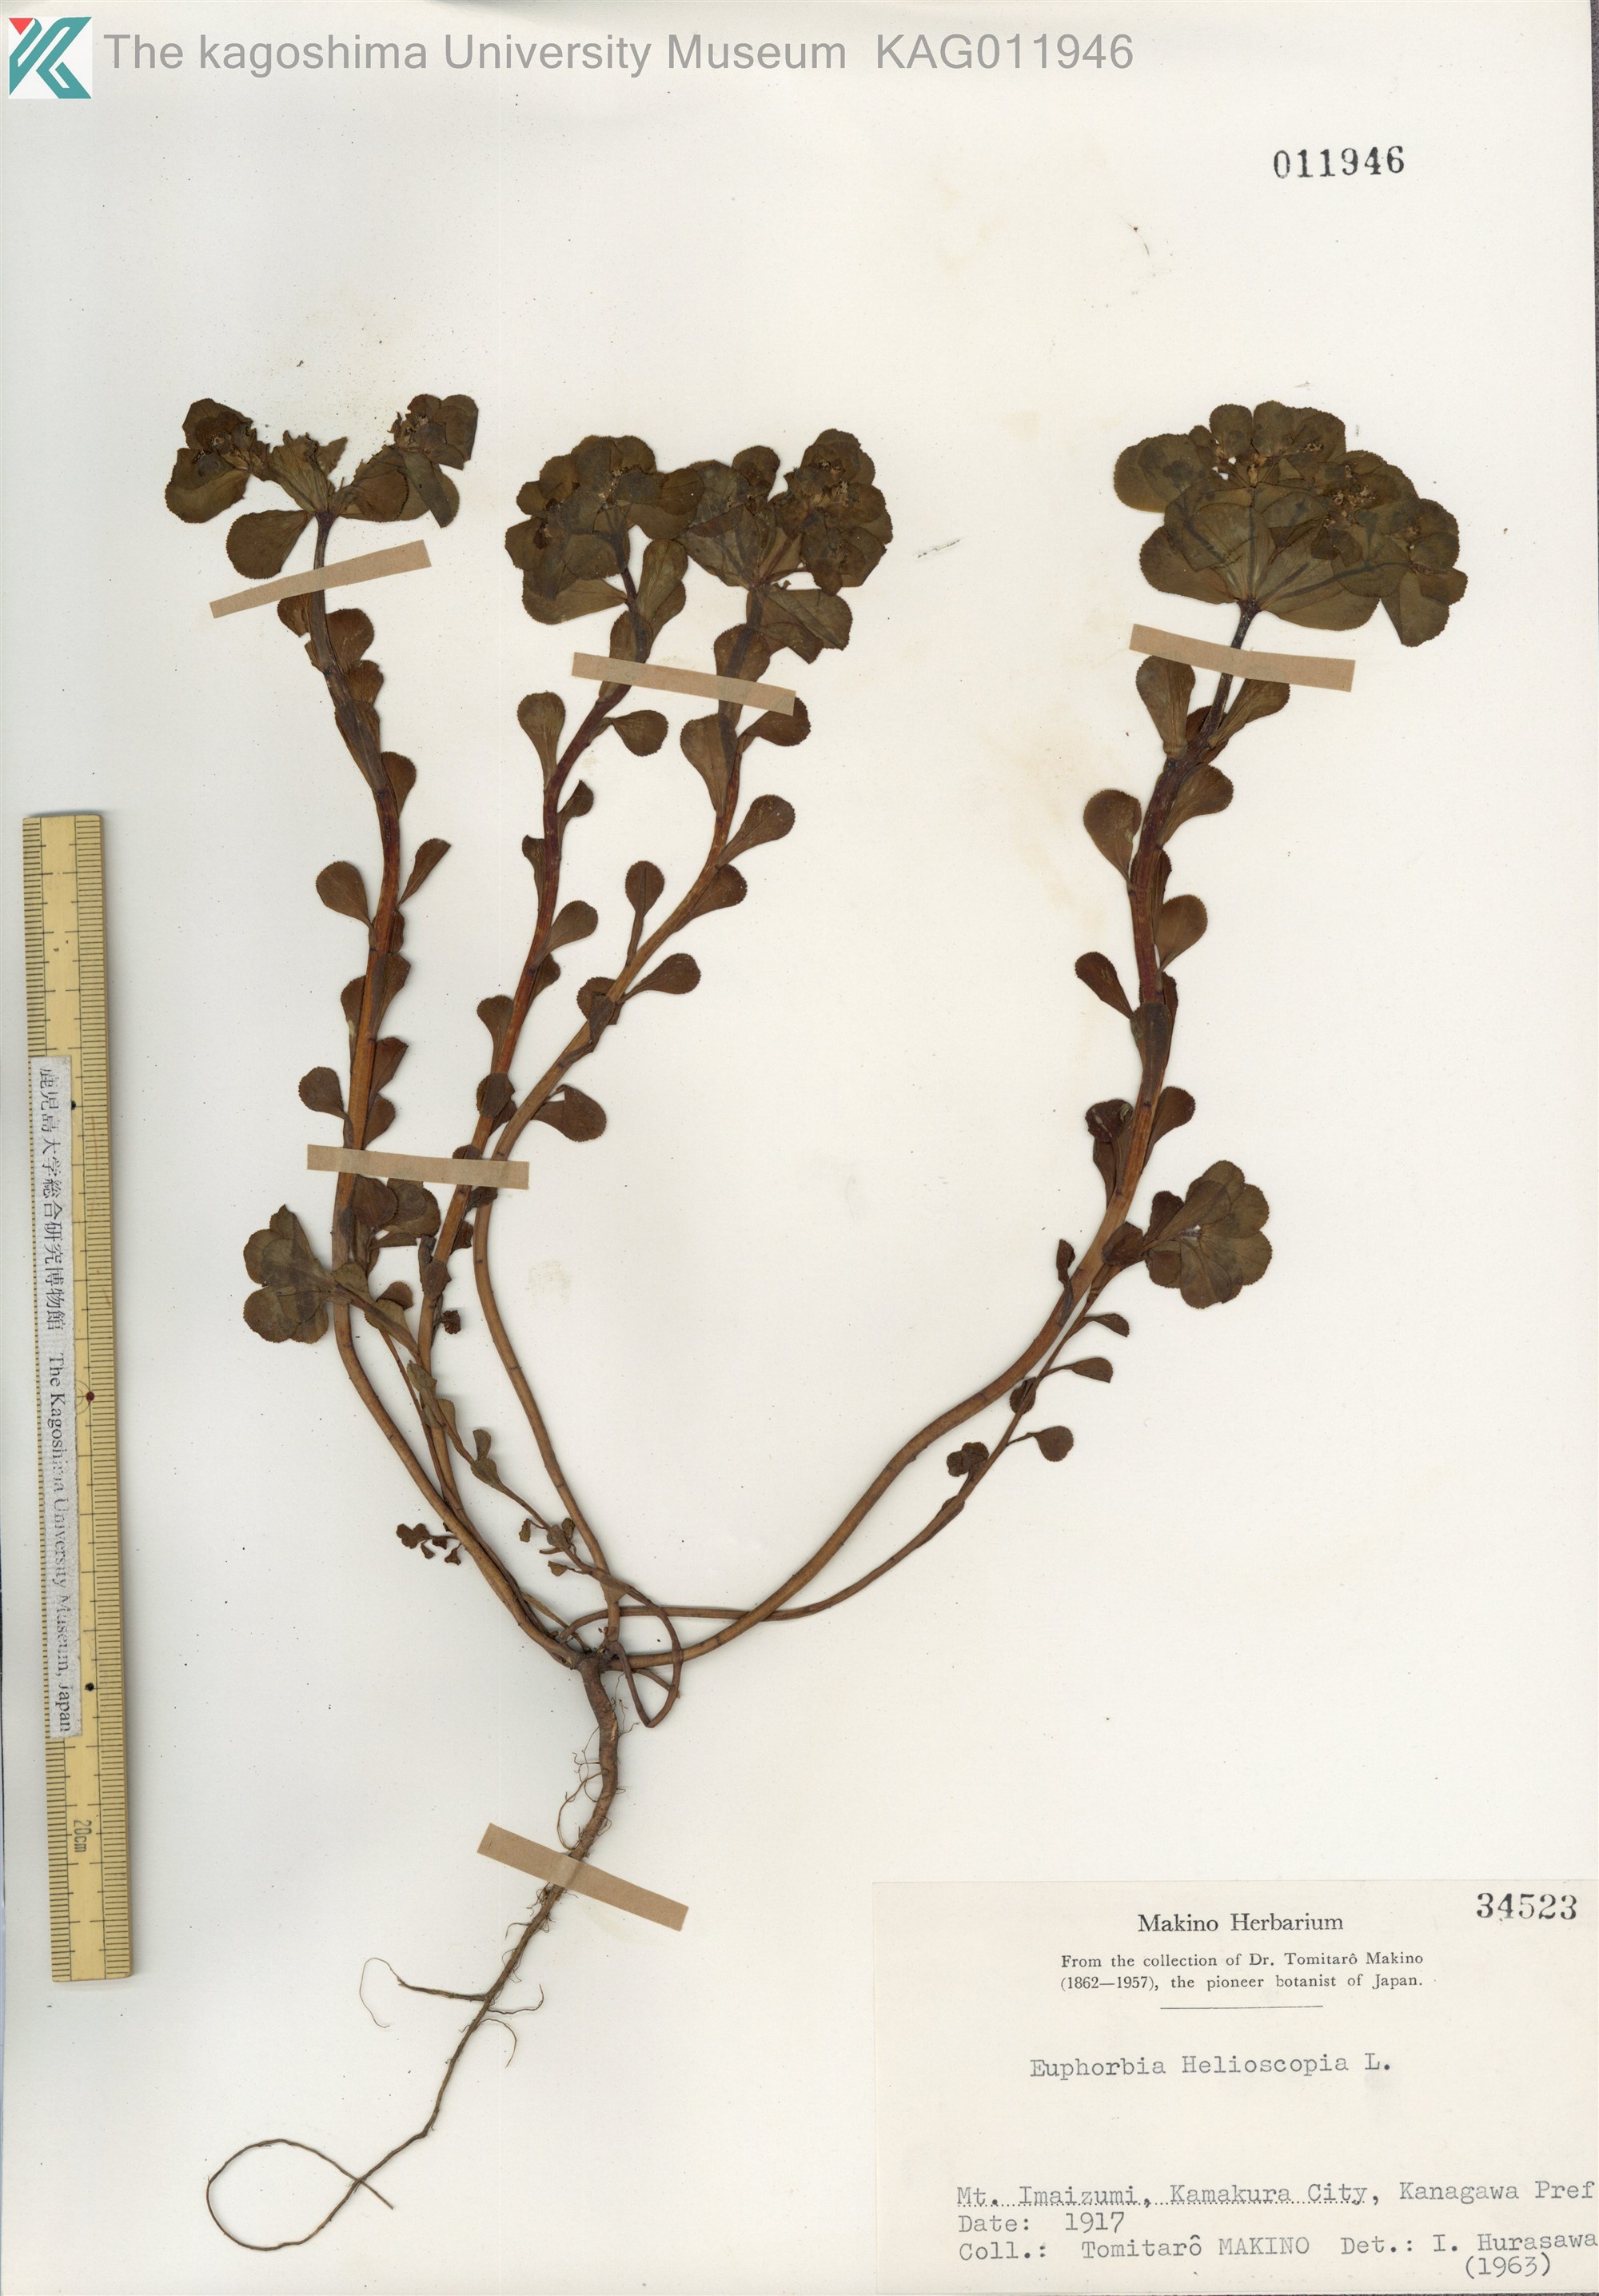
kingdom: Plantae
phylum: Tracheophyta
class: Magnoliopsida
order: Malpighiales
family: Euphorbiaceae
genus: Euphorbia
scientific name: Euphorbia helioscopia
